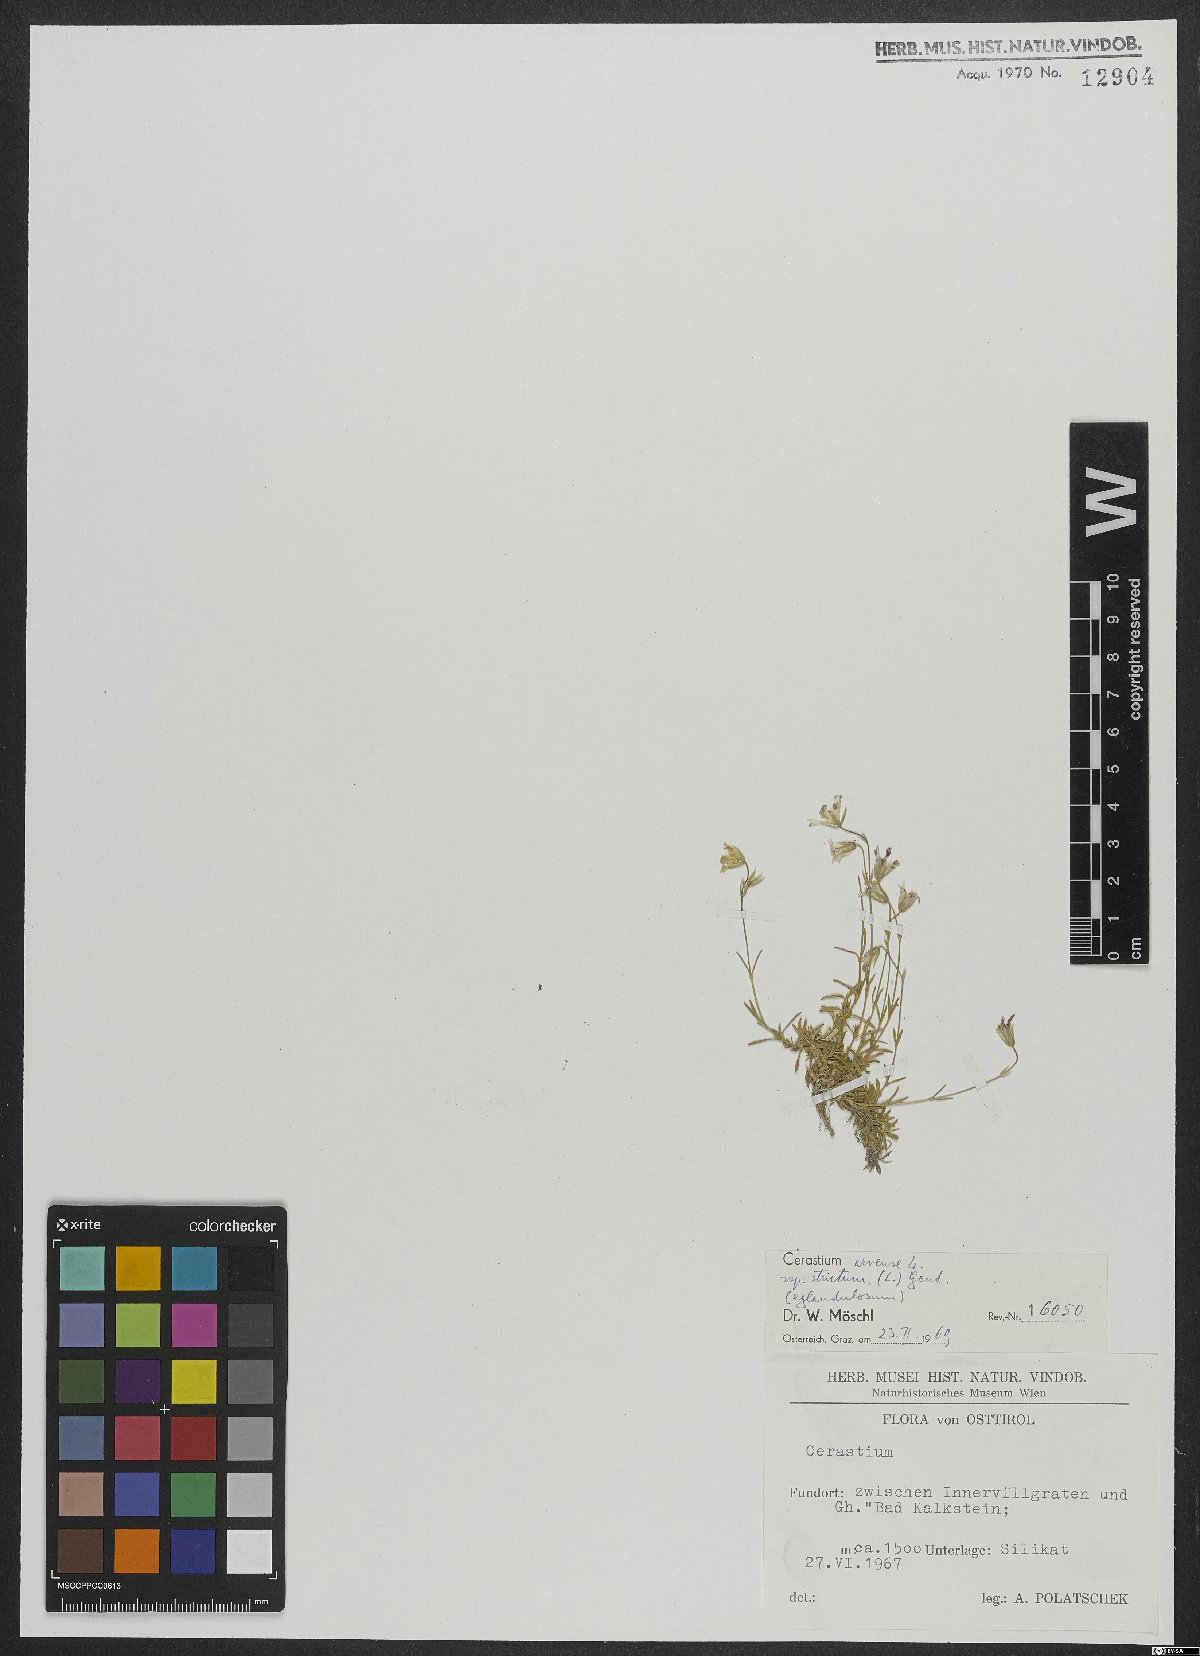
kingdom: Plantae
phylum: Tracheophyta
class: Magnoliopsida
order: Caryophyllales
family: Caryophyllaceae
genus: Cerastium
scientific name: Cerastium elongatum
